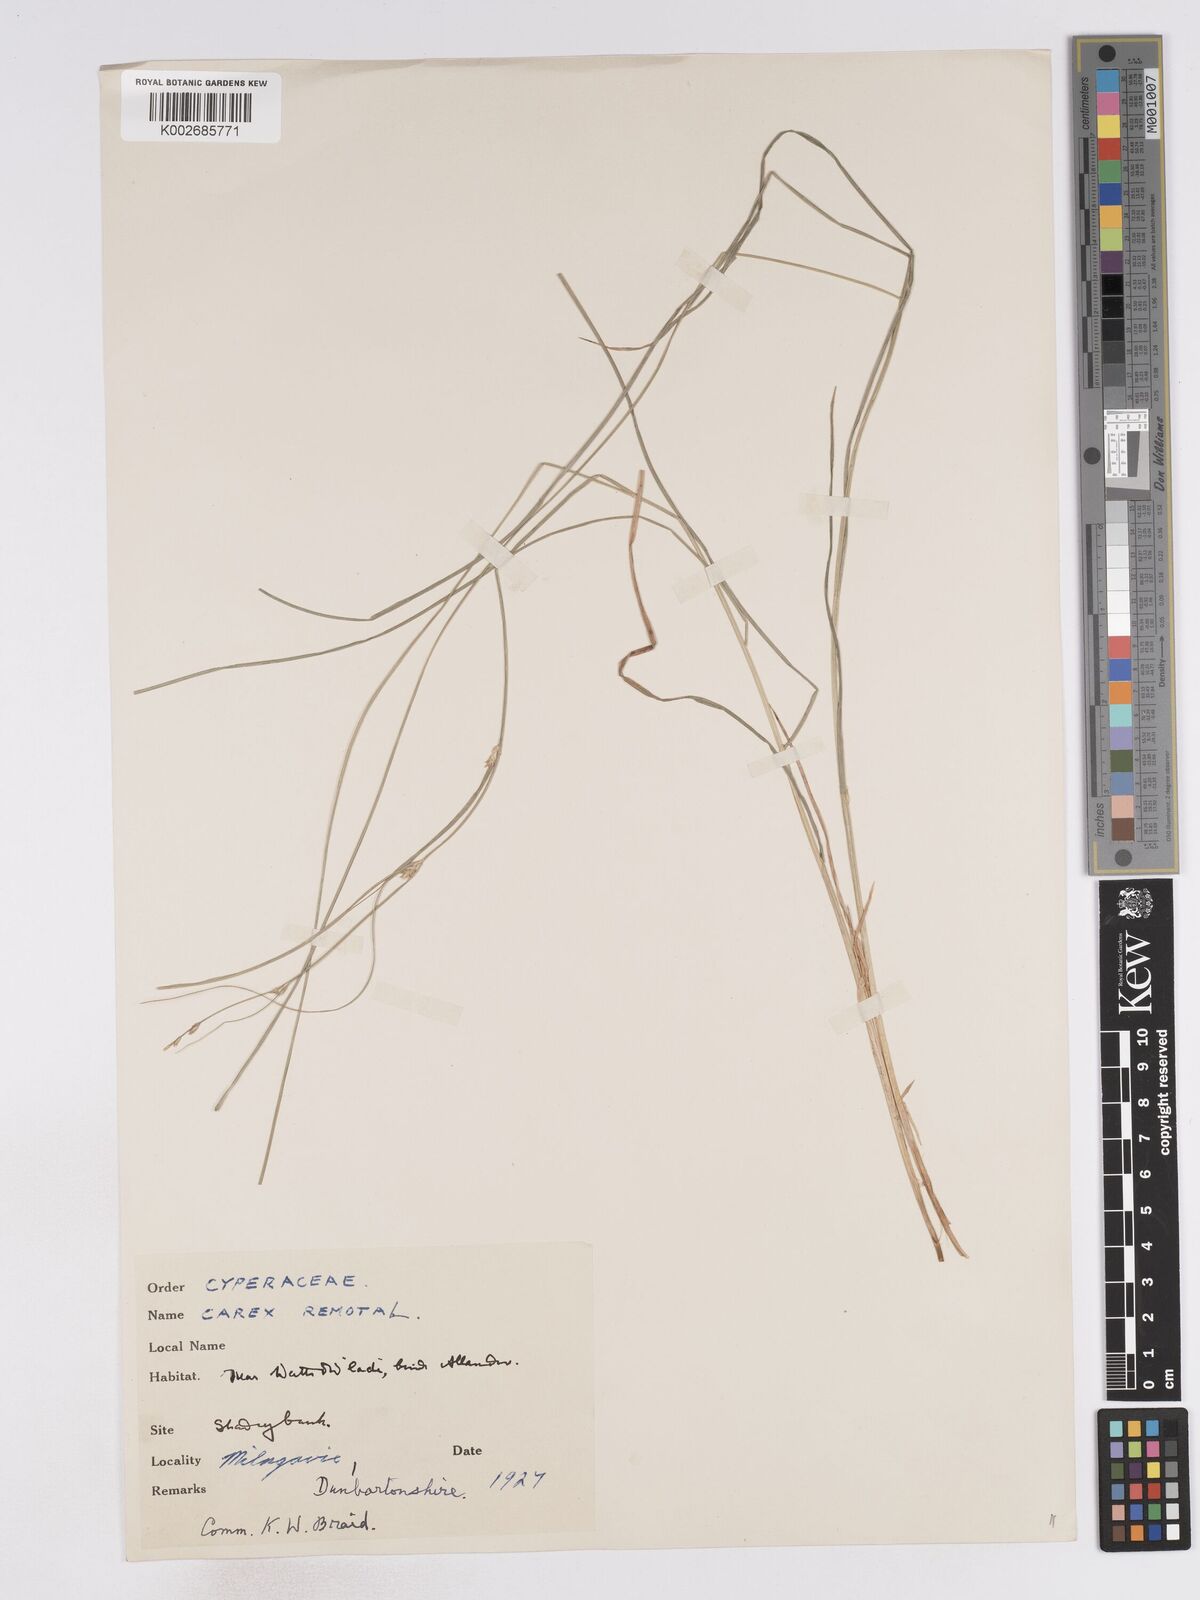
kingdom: Plantae
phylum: Tracheophyta
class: Liliopsida
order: Poales
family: Cyperaceae
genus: Carex
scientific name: Carex remota
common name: Remote sedge
